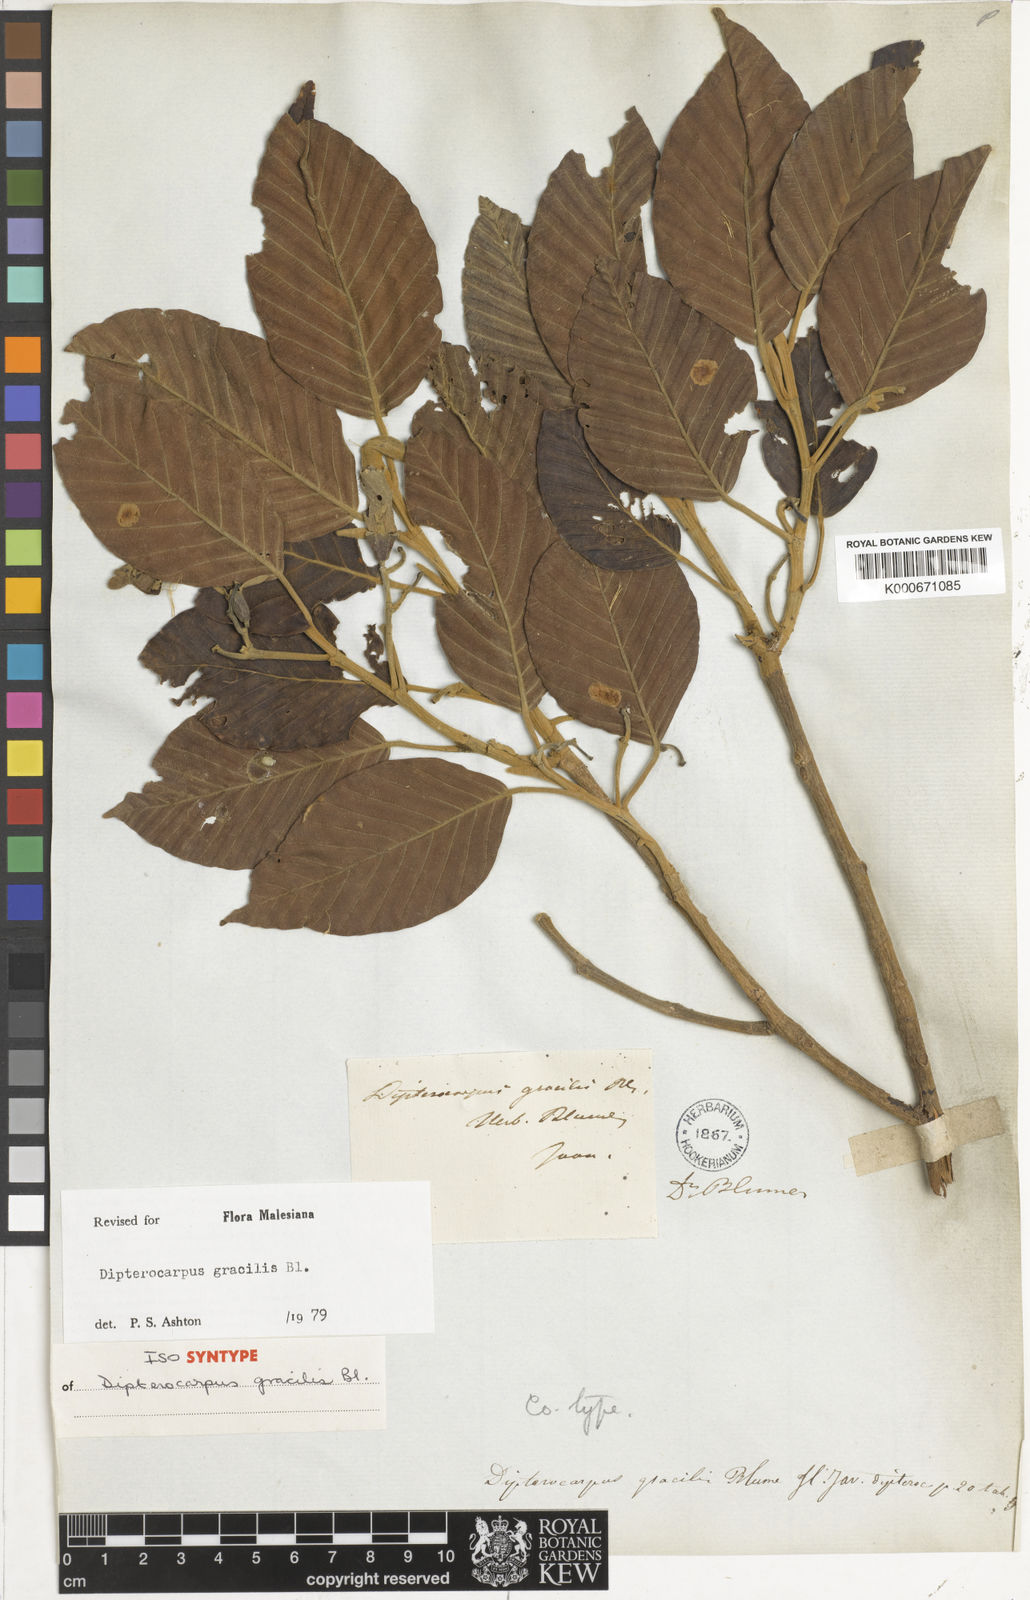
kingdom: Plantae
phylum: Tracheophyta
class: Magnoliopsida
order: Malvales
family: Dipterocarpaceae
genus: Dipterocarpus
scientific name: Dipterocarpus gracilis
